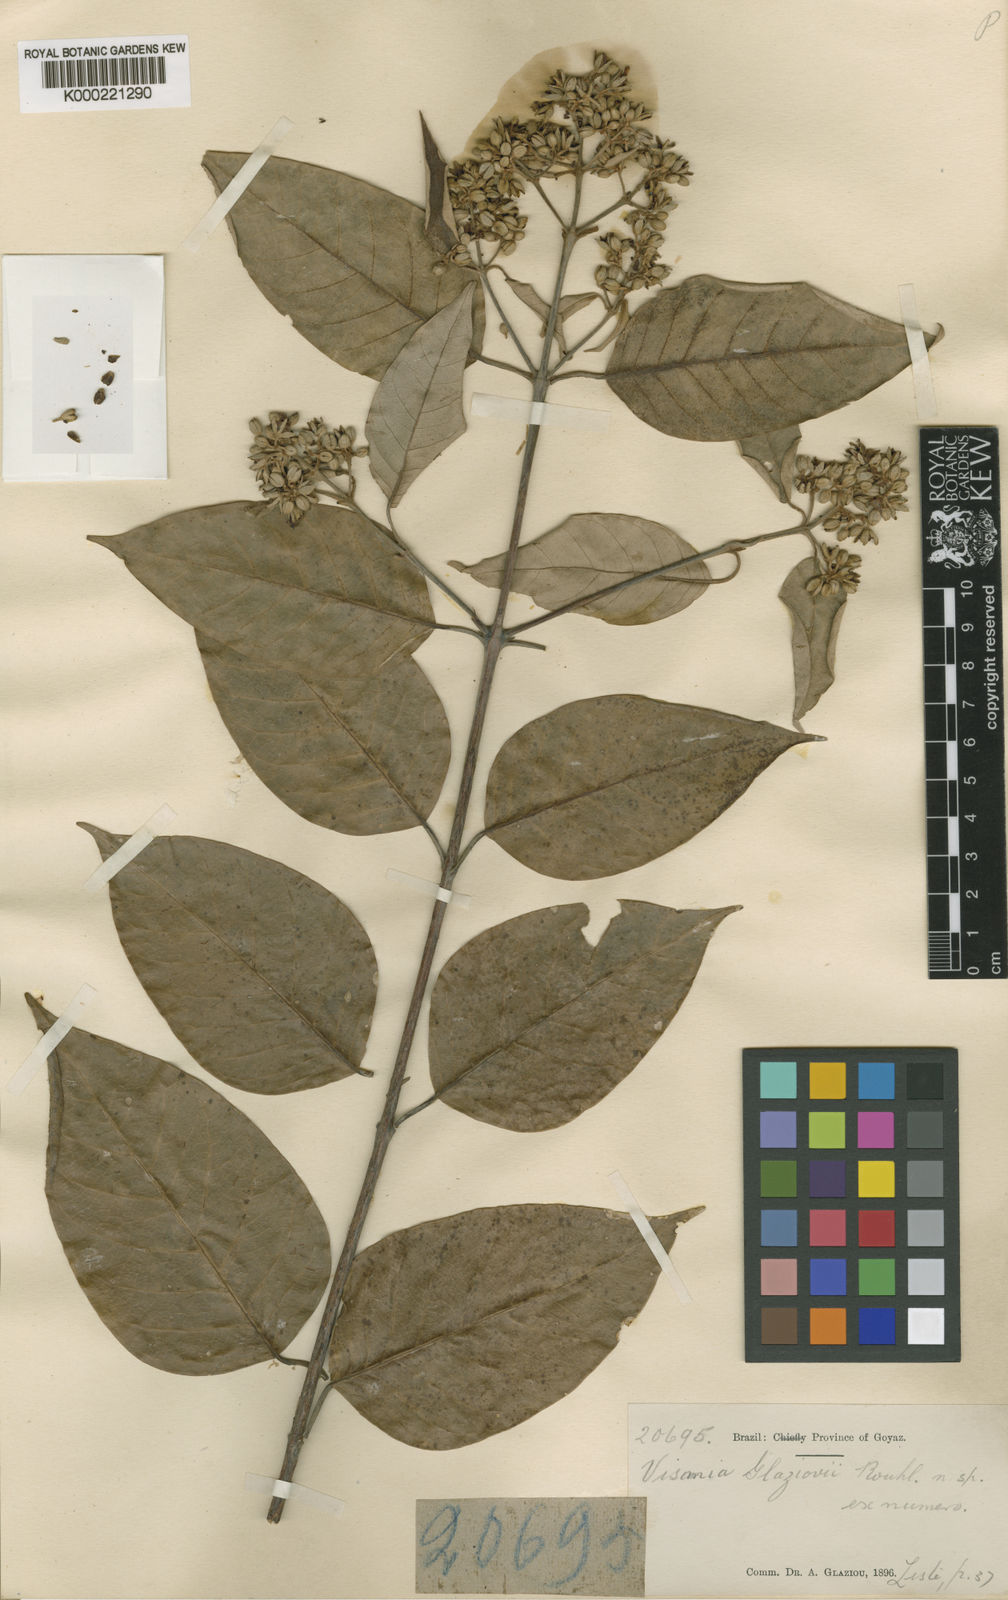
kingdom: Plantae
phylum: Tracheophyta
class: Magnoliopsida
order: Malpighiales
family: Hypericaceae
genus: Vismia
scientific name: Vismia gracilis
